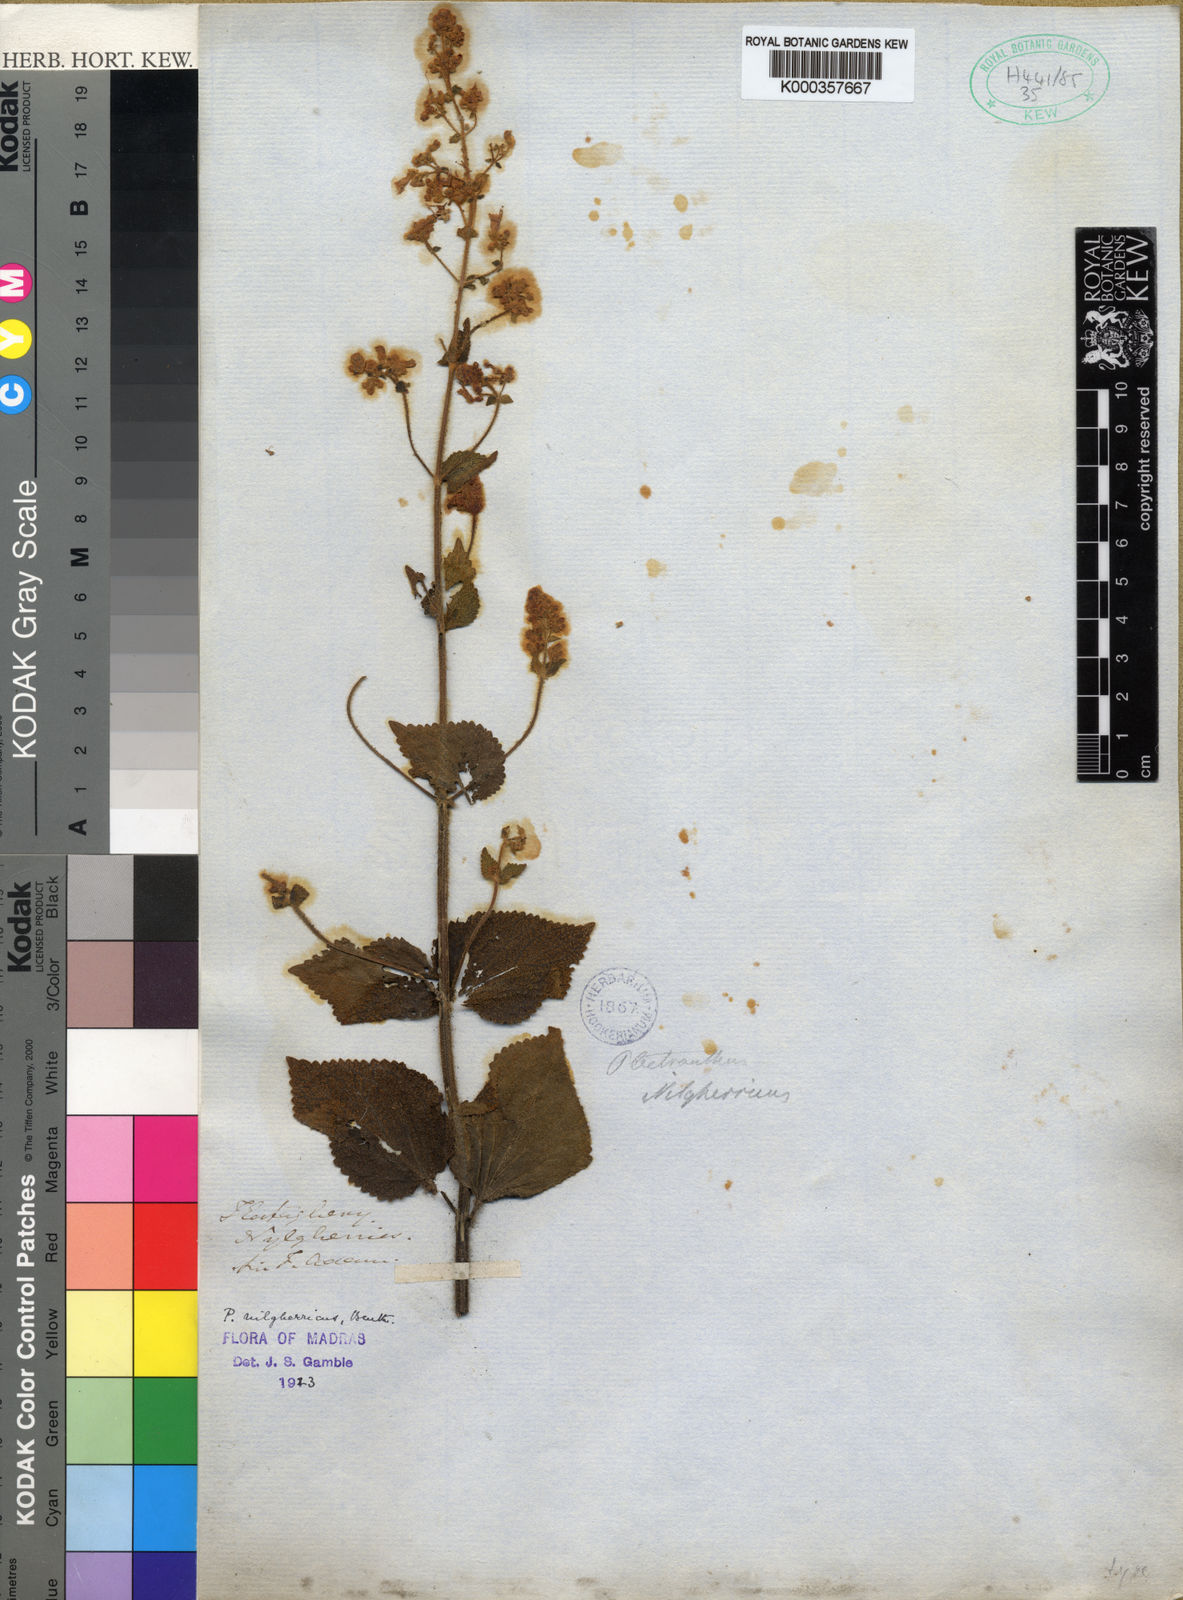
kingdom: Plantae
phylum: Tracheophyta
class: Magnoliopsida
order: Lamiales
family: Lamiaceae
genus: Isodon
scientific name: Isodon nilgherricus
